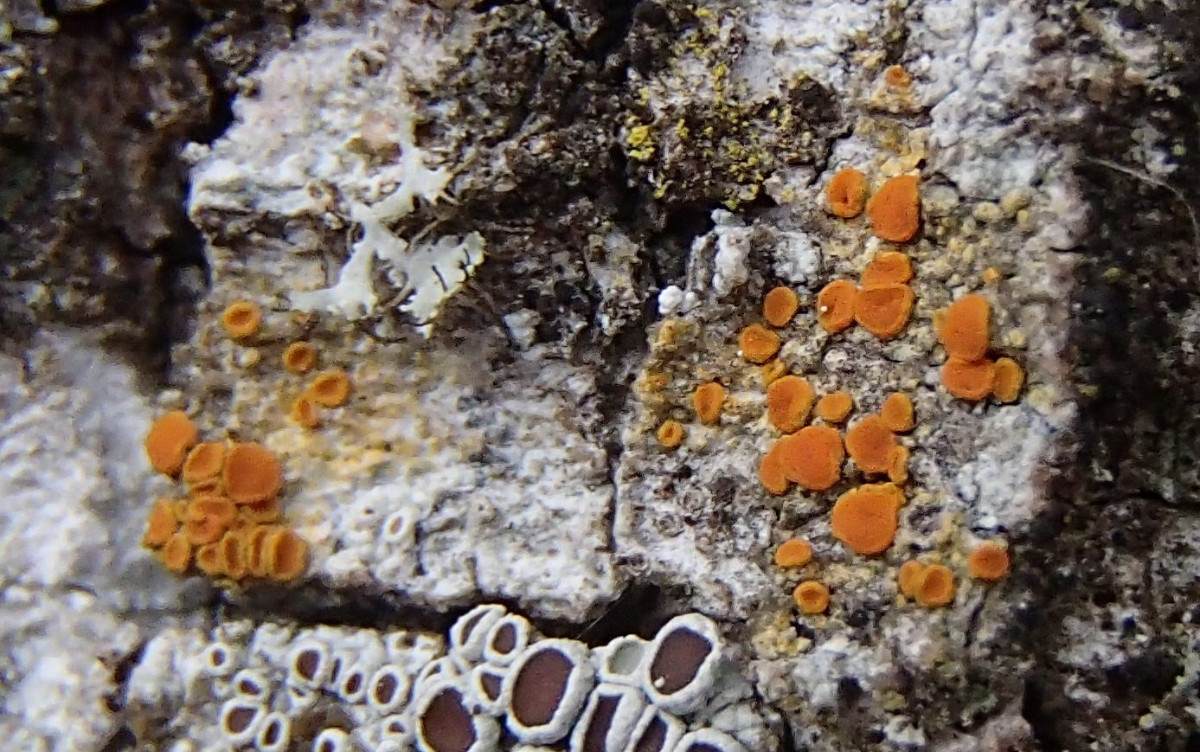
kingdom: Fungi
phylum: Ascomycota
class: Lecanoromycetes
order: Teloschistales
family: Teloschistaceae
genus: Opeltia
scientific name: Opeltia flavorubescens
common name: aspe-orangelav
